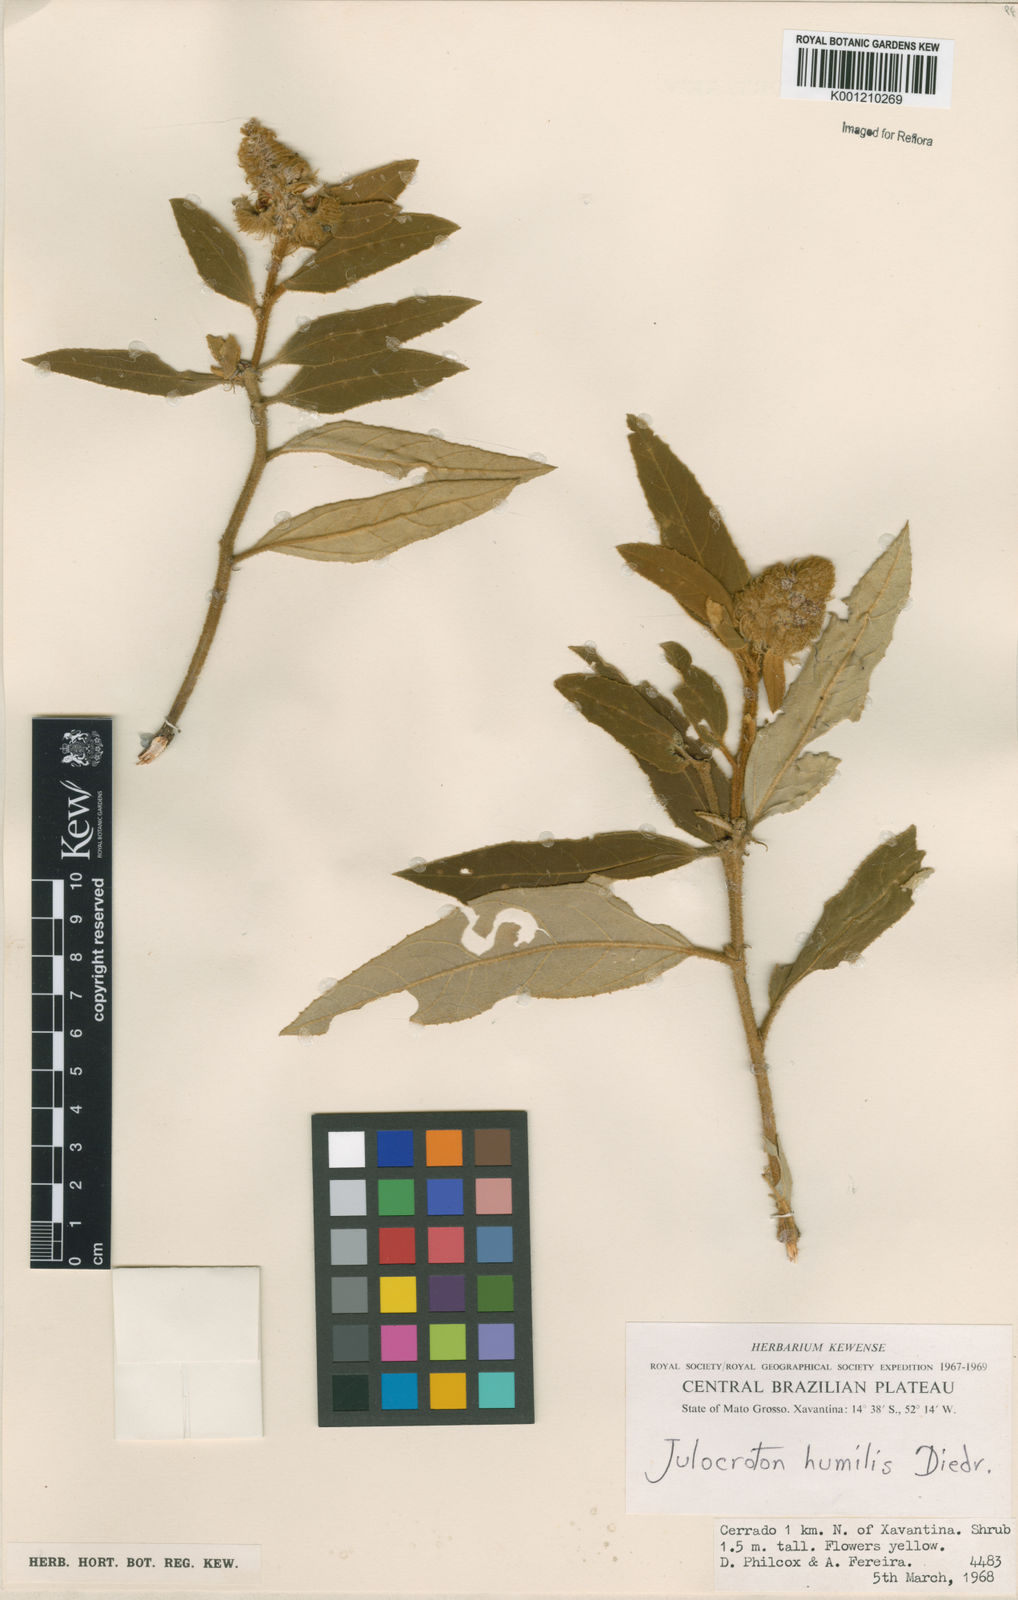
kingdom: Plantae
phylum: Tracheophyta
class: Magnoliopsida
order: Malpighiales
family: Euphorbiaceae
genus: Croton
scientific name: Croton solanaceus
